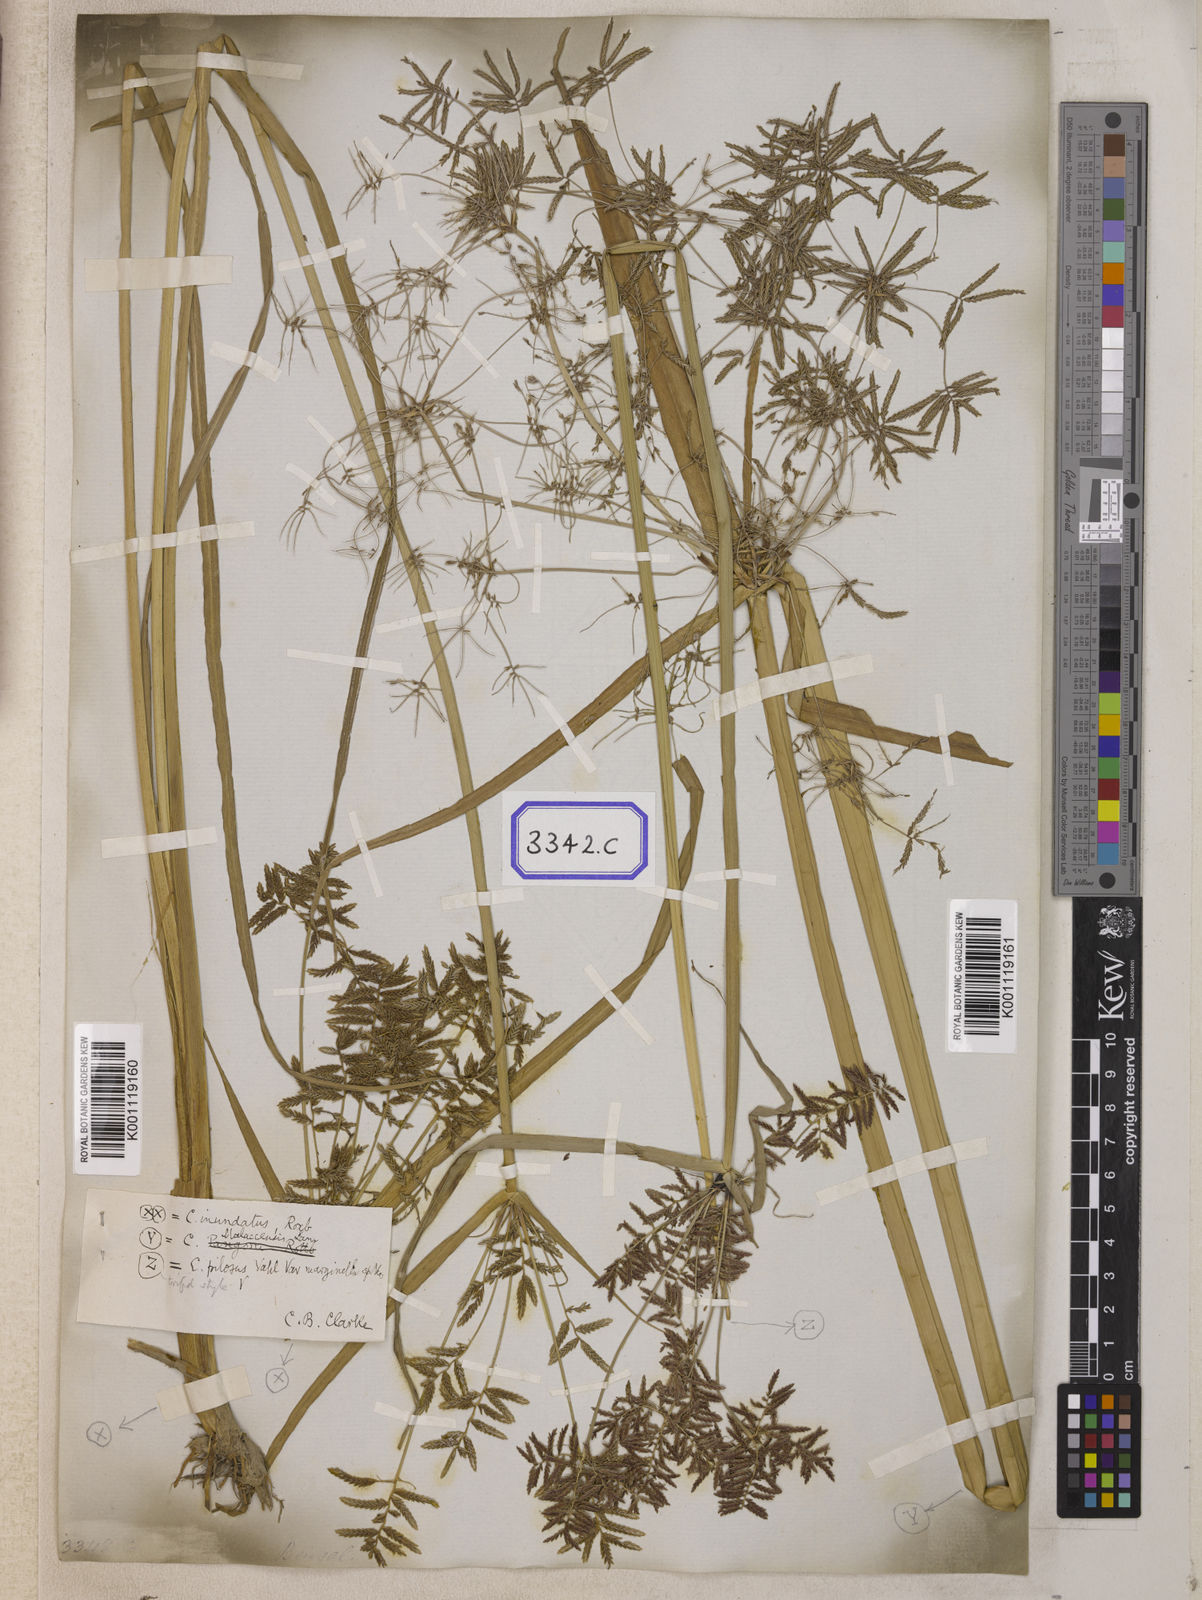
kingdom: Plantae
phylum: Tracheophyta
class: Liliopsida
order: Poales
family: Cyperaceae
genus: Cyperus
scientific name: Cyperus
